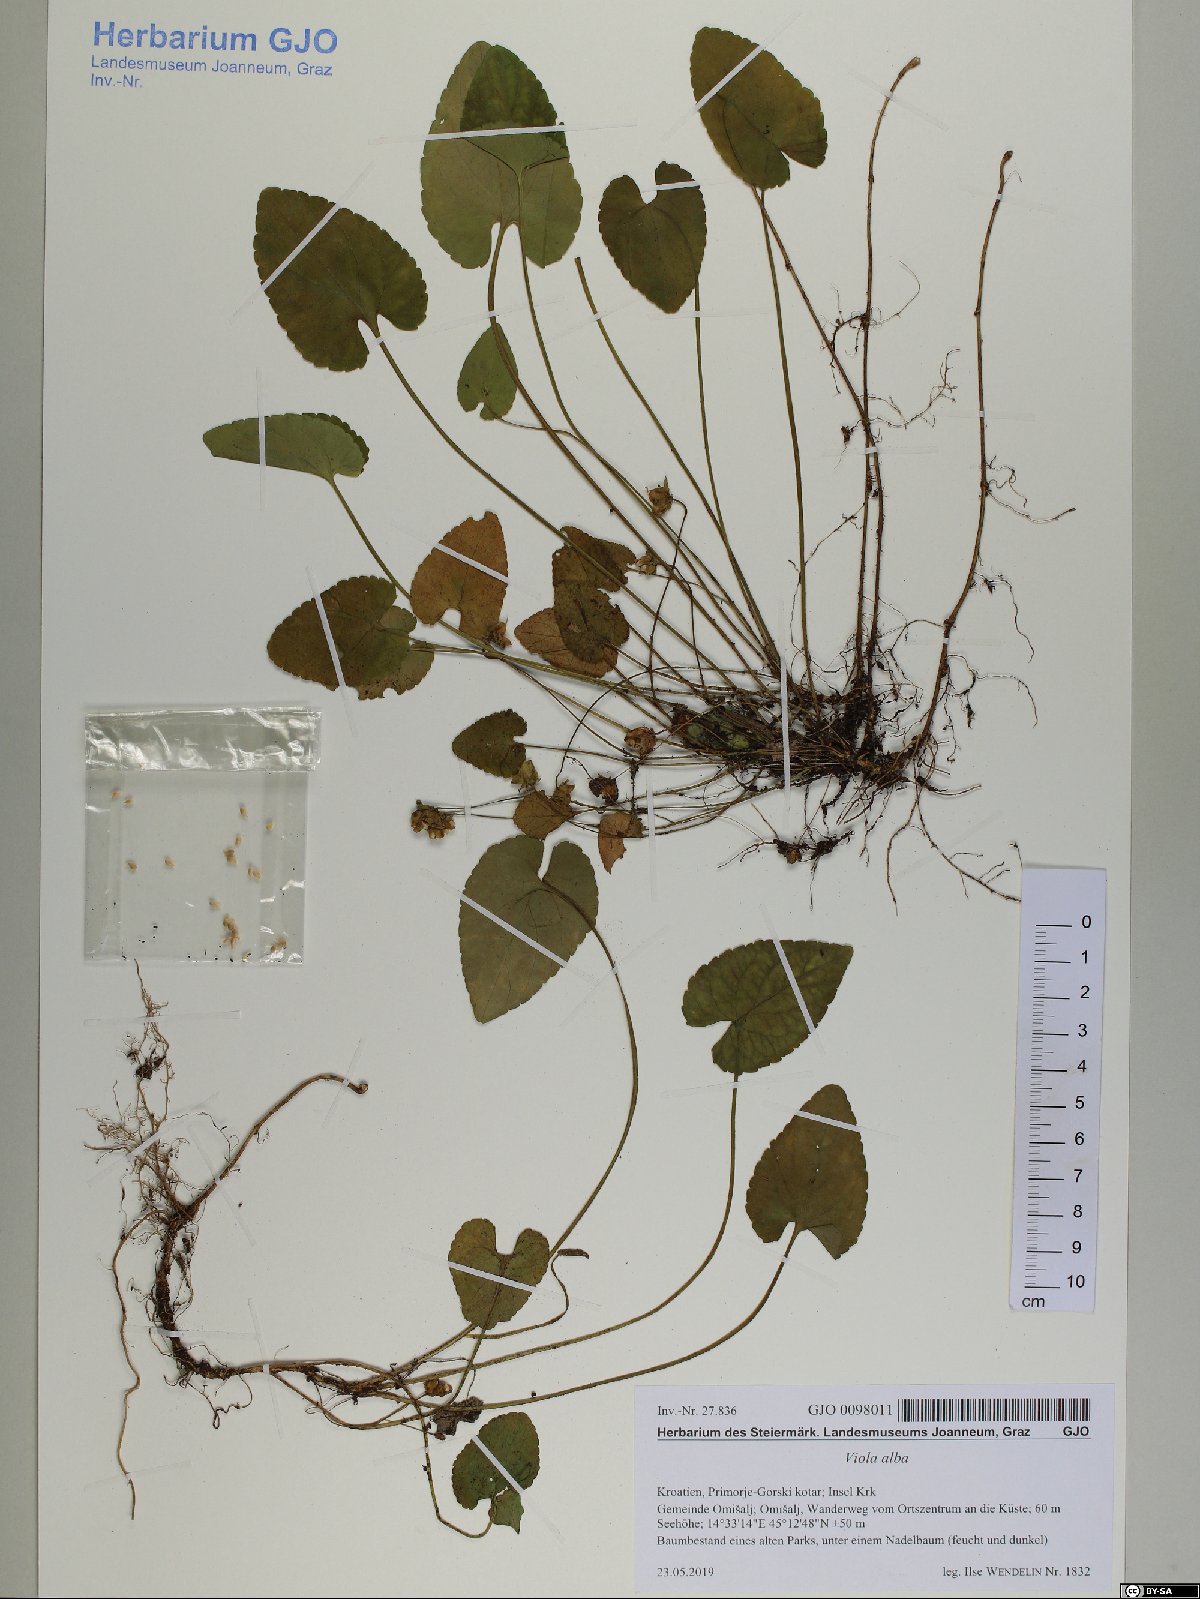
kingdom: Plantae
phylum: Tracheophyta
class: Magnoliopsida
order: Malpighiales
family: Violaceae
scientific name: Violaceae
